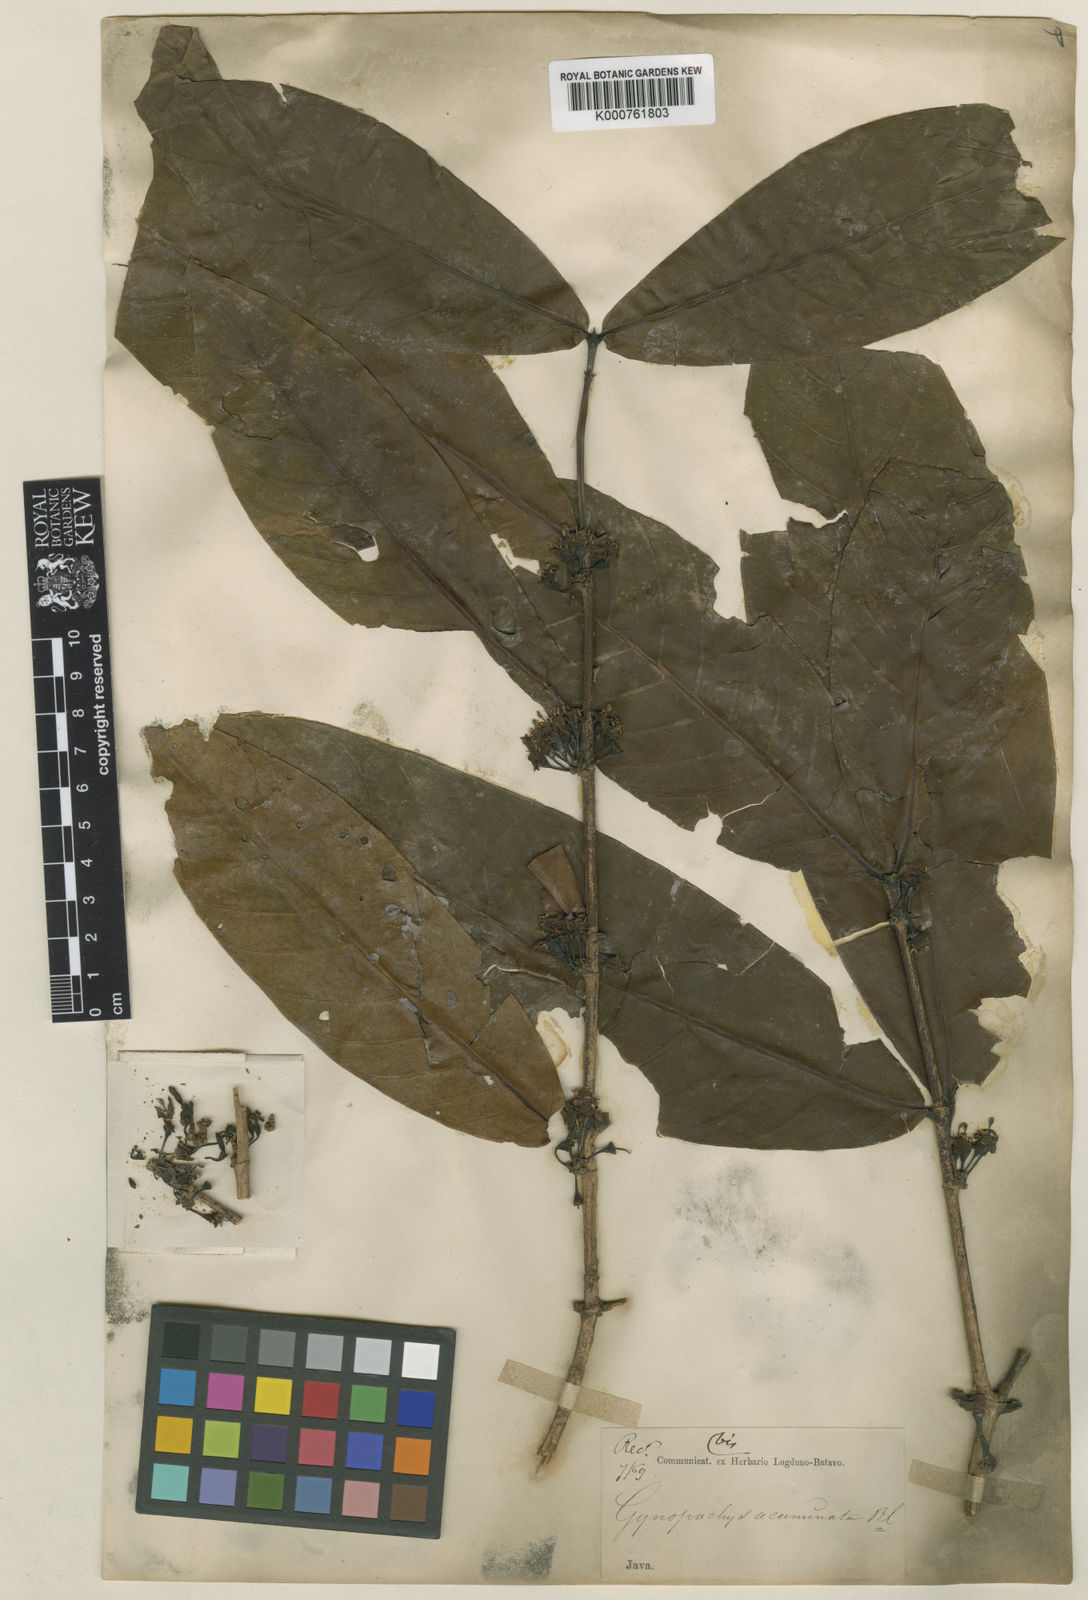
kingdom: Plantae
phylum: Tracheophyta
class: Magnoliopsida
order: Gentianales
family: Rubiaceae
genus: Aidia
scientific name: Aidia acuminata
